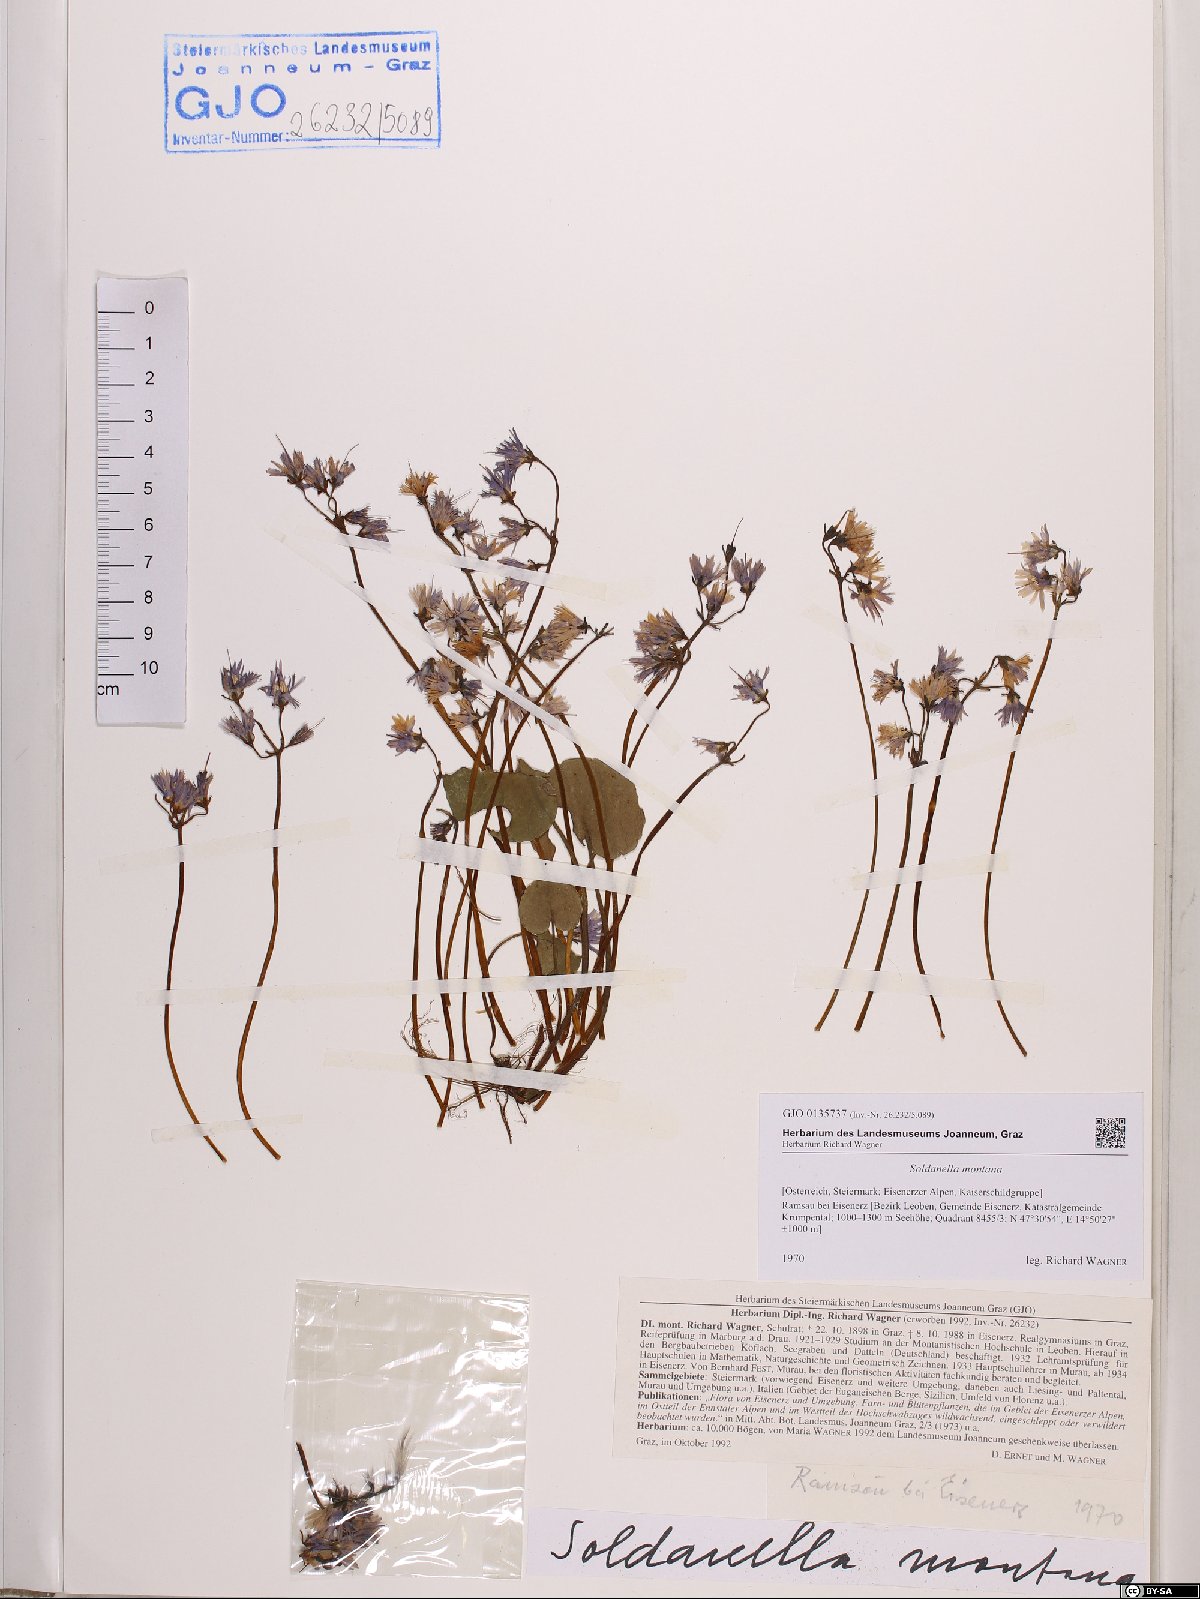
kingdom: Plantae
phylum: Tracheophyta
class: Magnoliopsida
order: Ericales
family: Primulaceae
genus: Soldanella
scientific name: Soldanella montana
